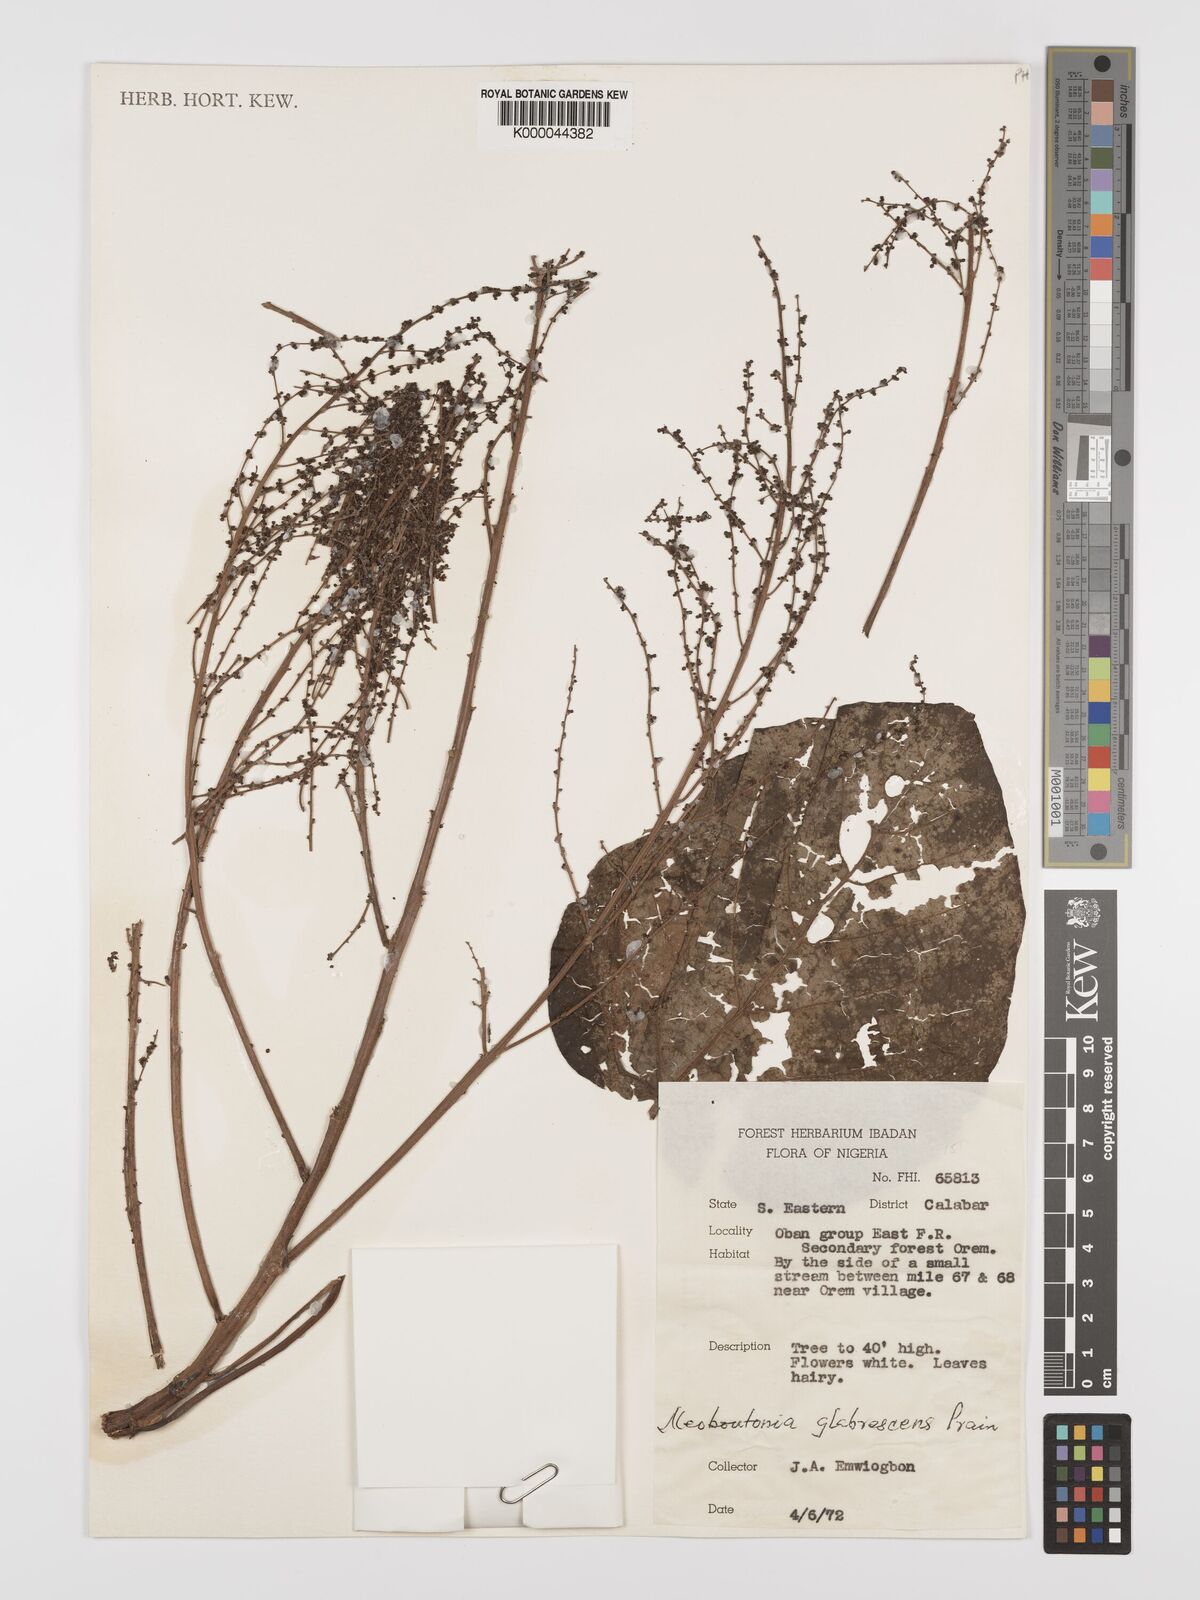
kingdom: Plantae
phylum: Tracheophyta
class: Magnoliopsida
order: Malpighiales
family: Euphorbiaceae
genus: Neoboutonia
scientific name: Neoboutonia mannii
